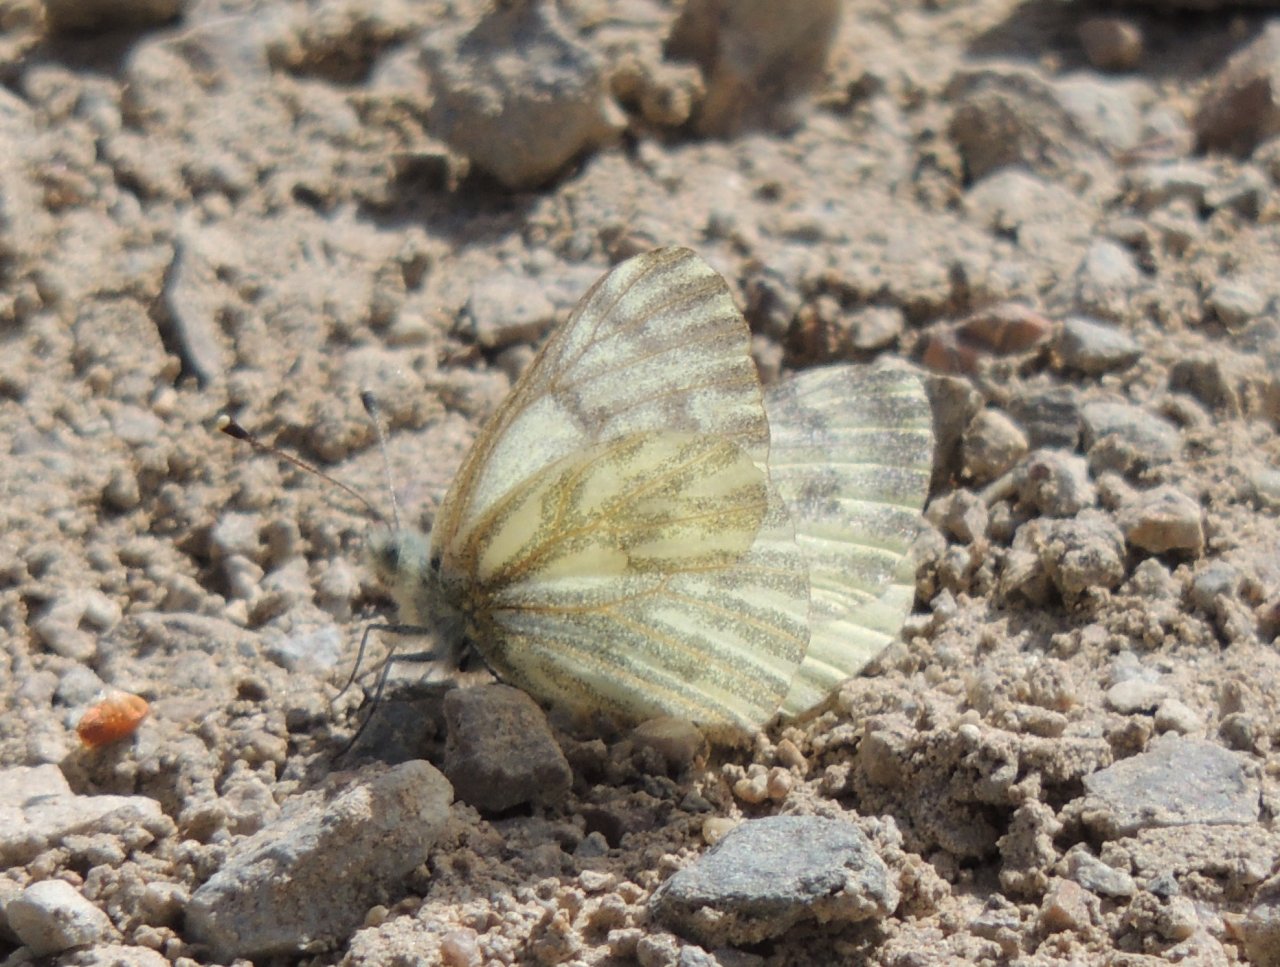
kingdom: Animalia
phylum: Arthropoda
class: Insecta
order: Lepidoptera
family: Pieridae
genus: Pontia
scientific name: Pontia sisymbrii
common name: Spring White
